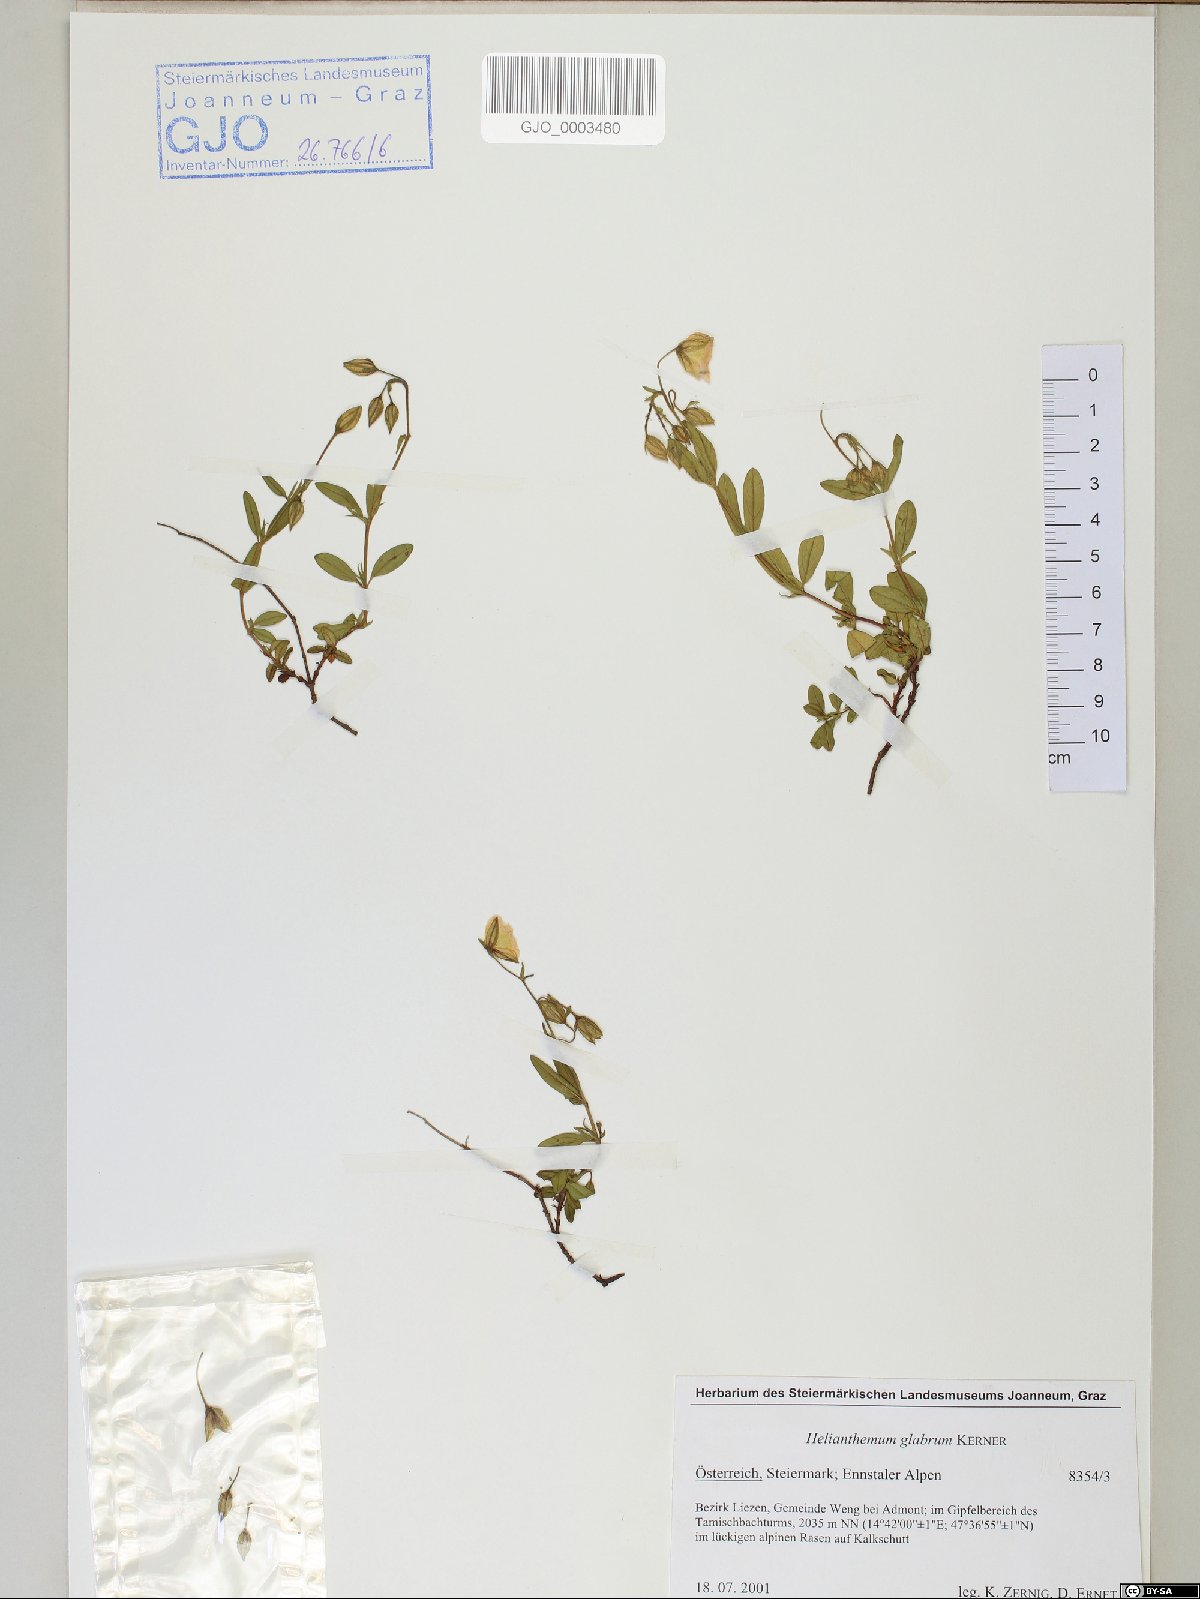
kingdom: Plantae
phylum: Tracheophyta
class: Magnoliopsida
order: Malvales
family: Cistaceae
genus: Helianthemum
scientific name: Helianthemum nummularium
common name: Common rock-rose
